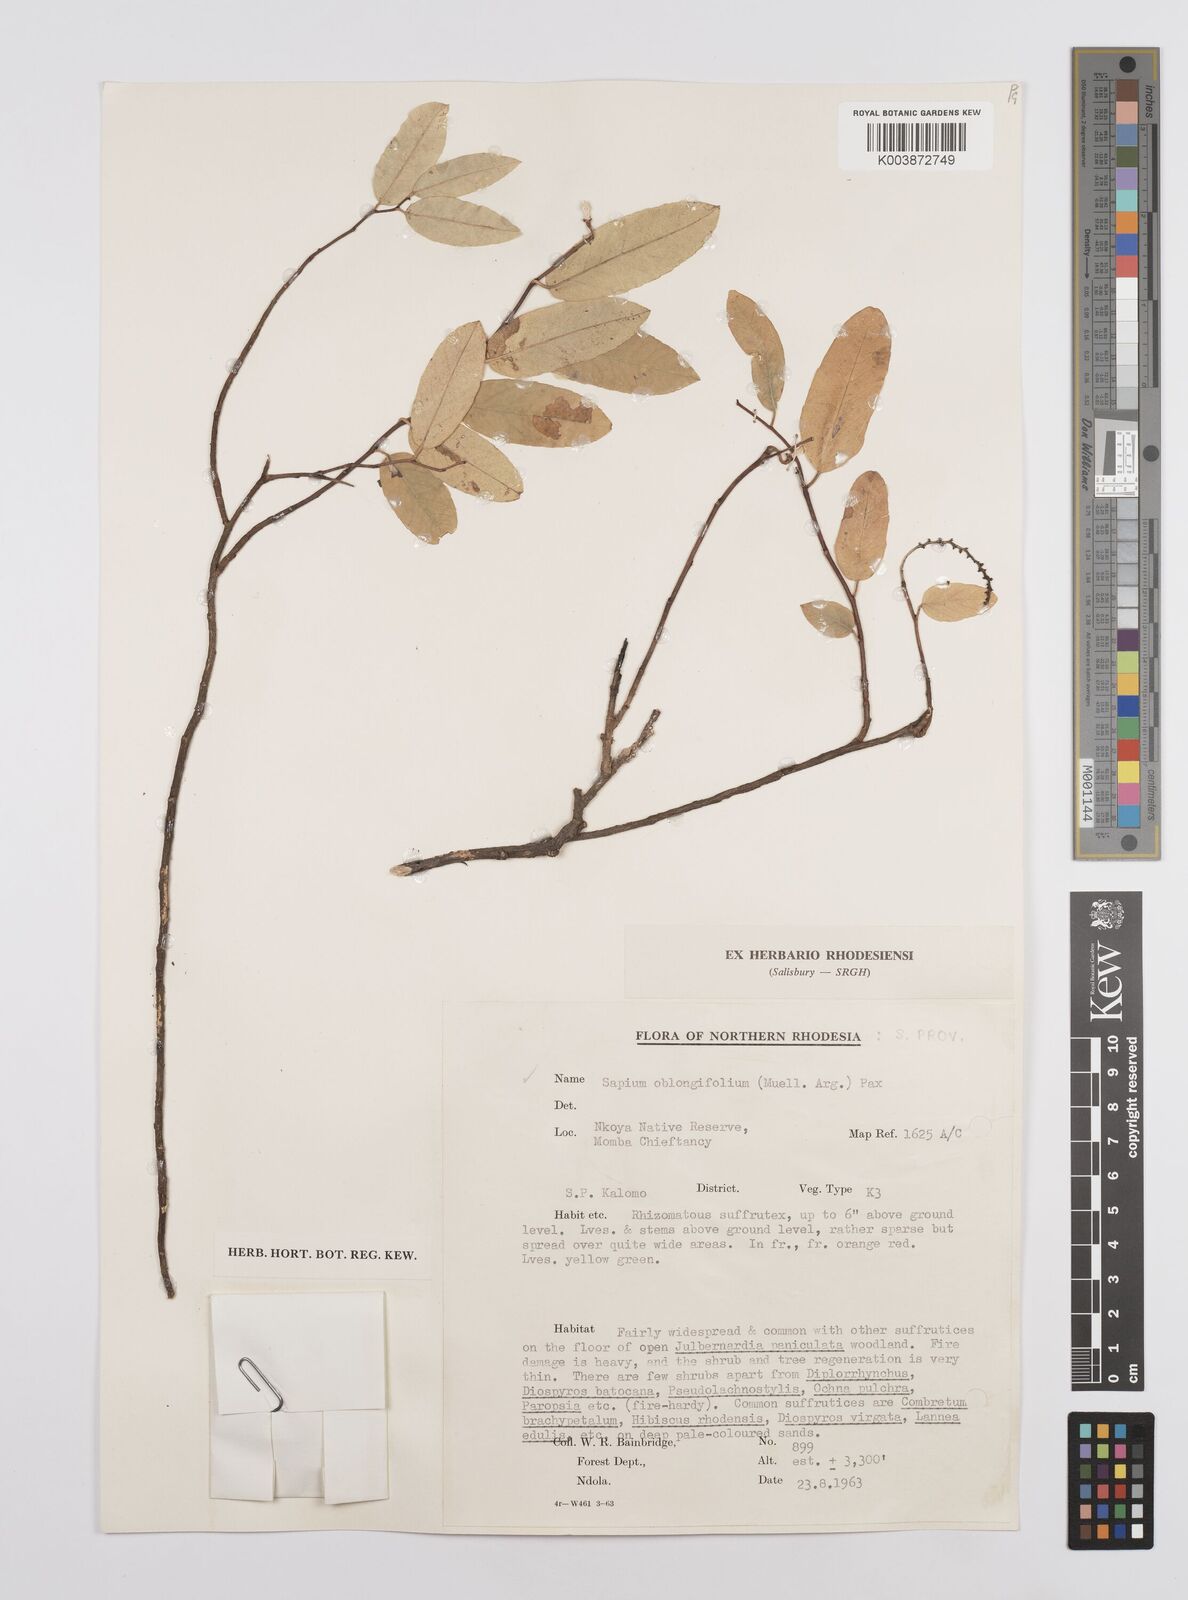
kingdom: Plantae
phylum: Tracheophyta
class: Magnoliopsida
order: Malpighiales
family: Euphorbiaceae
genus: Sclerocroton
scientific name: Sclerocroton oblongifolius
